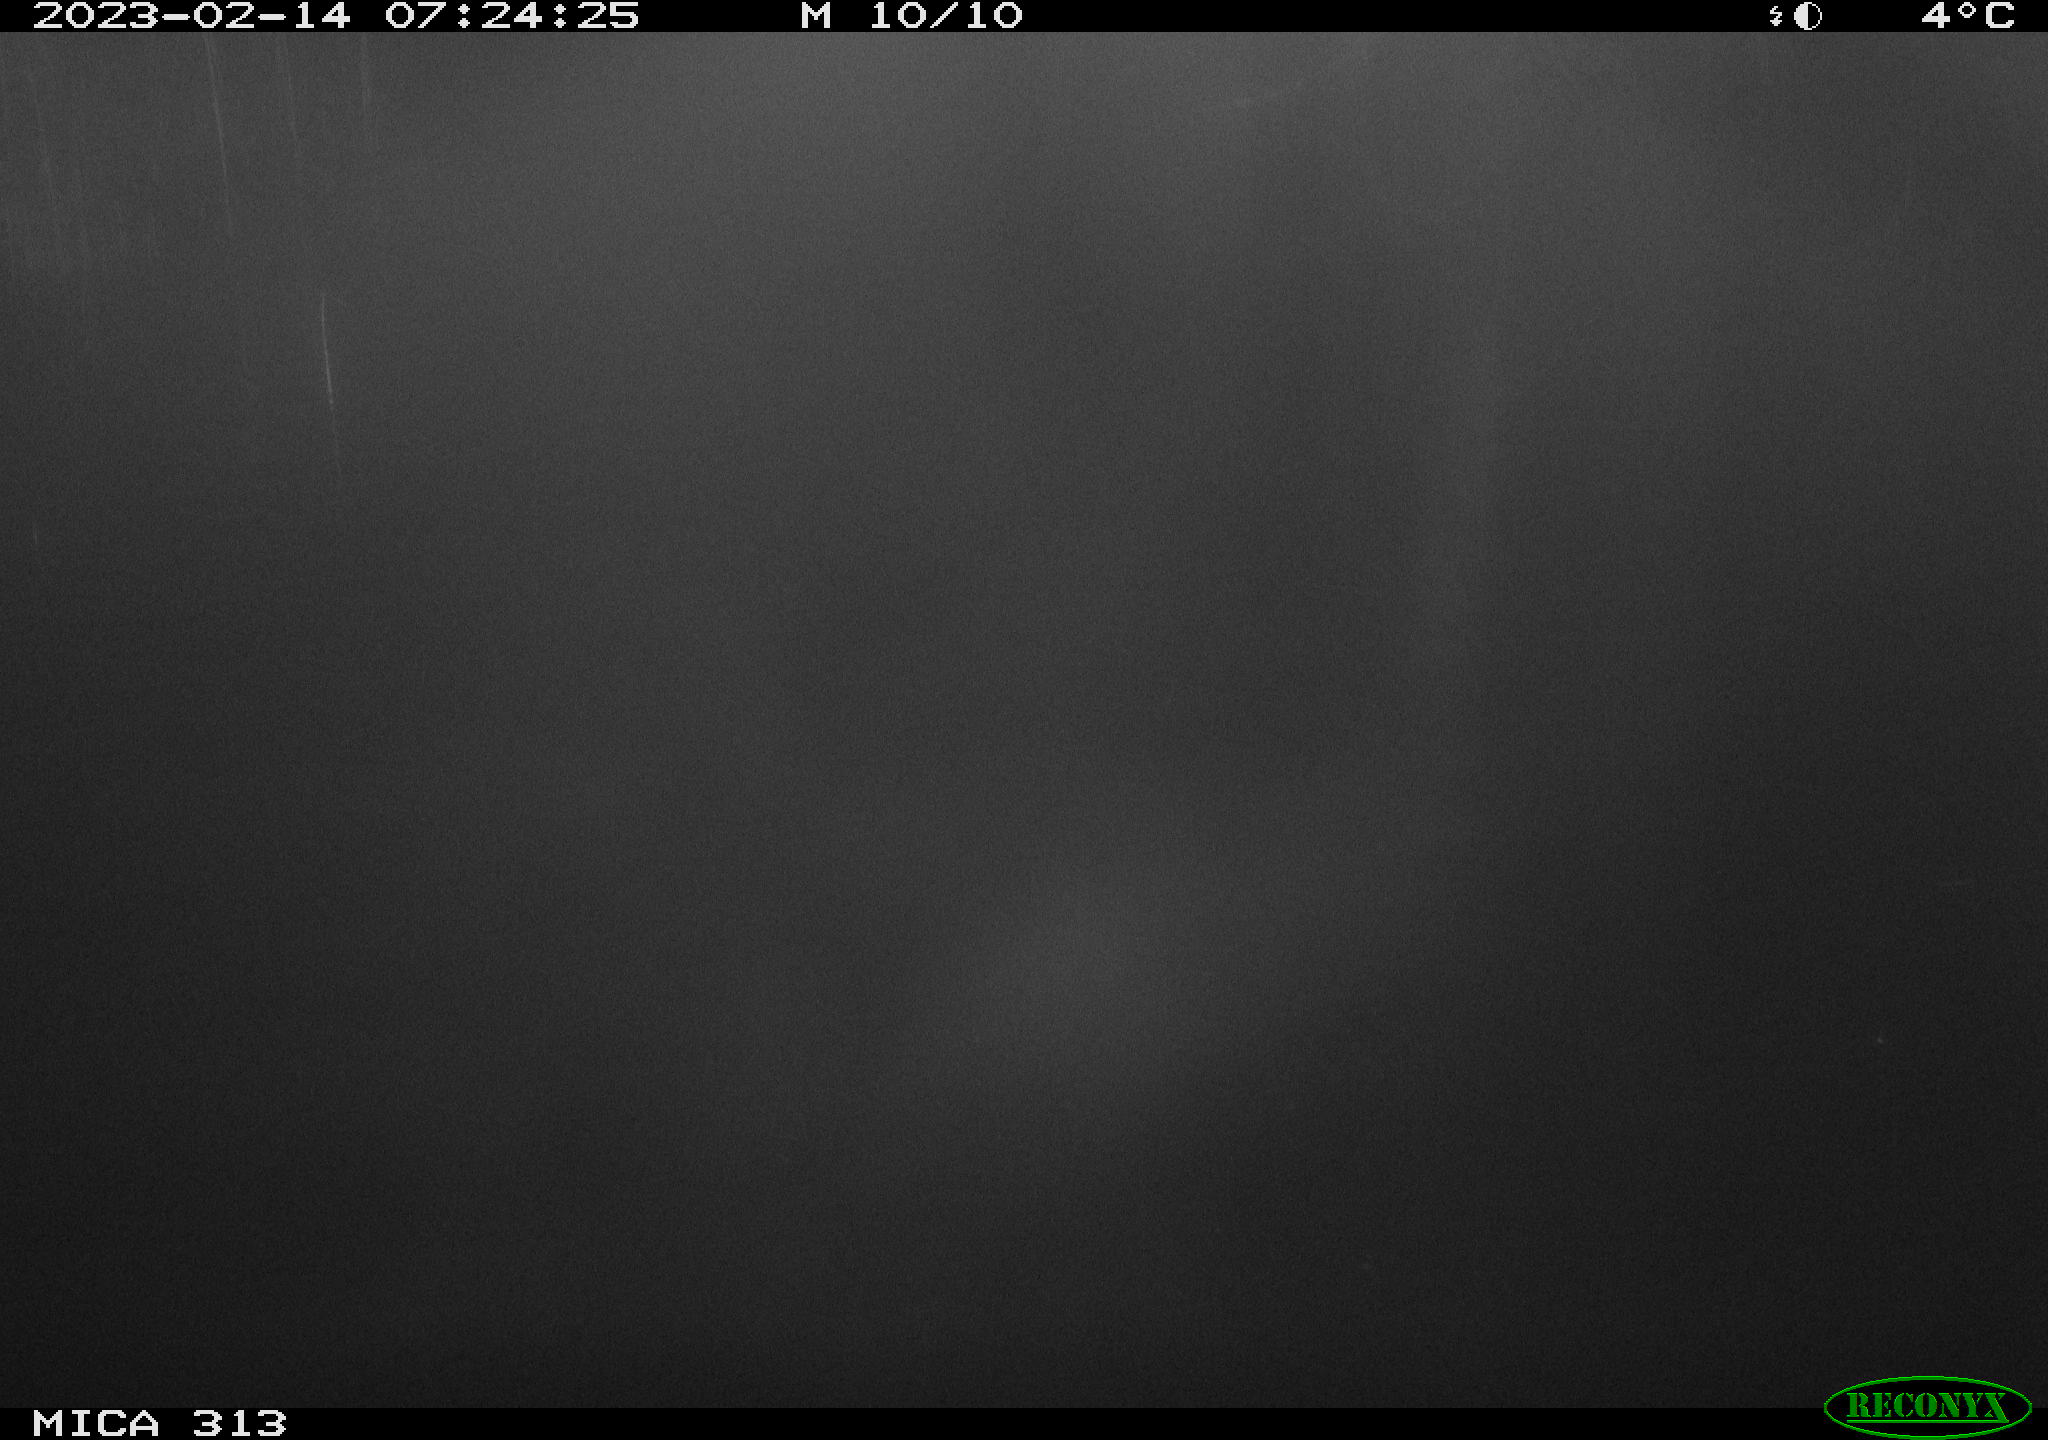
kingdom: Animalia
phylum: Chordata
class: Aves
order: Gruiformes
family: Rallidae
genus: Gallinula
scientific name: Gallinula chloropus
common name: Common moorhen
